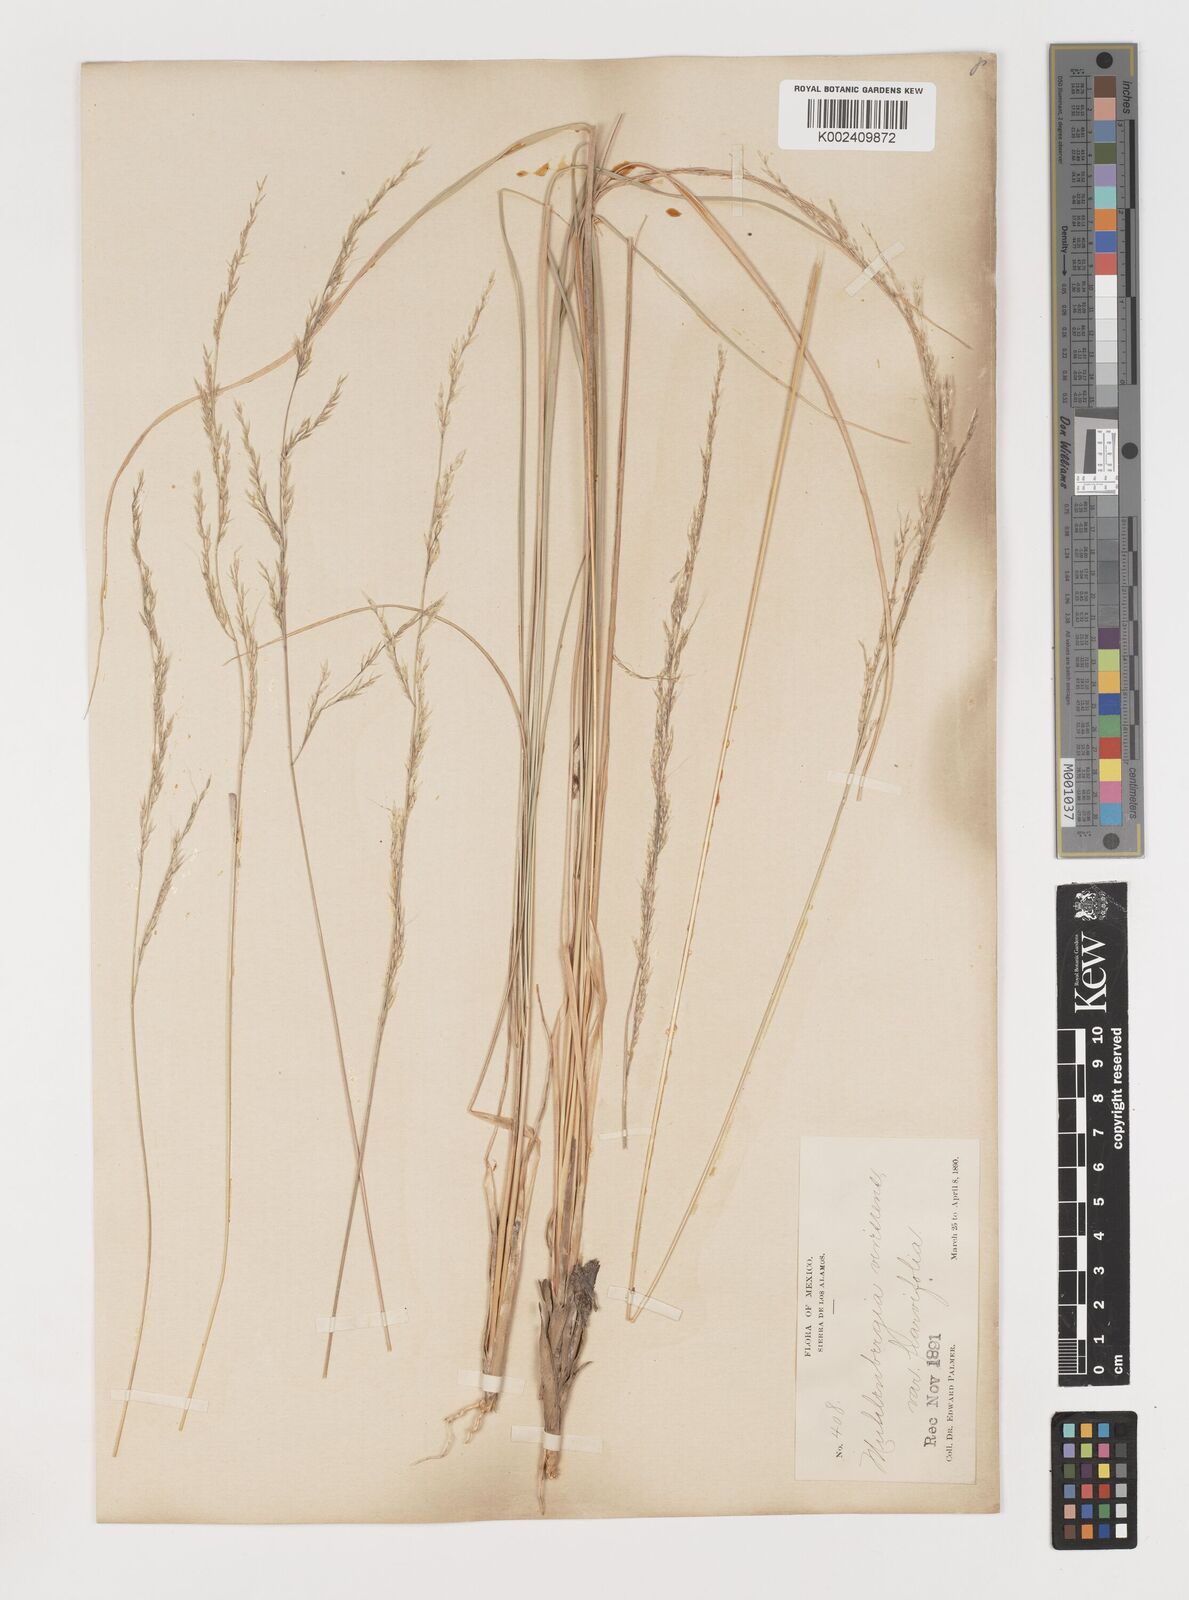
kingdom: Plantae
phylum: Tracheophyta
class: Liliopsida
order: Poales
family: Poaceae
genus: Muhlenbergia
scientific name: Muhlenbergia virescens
